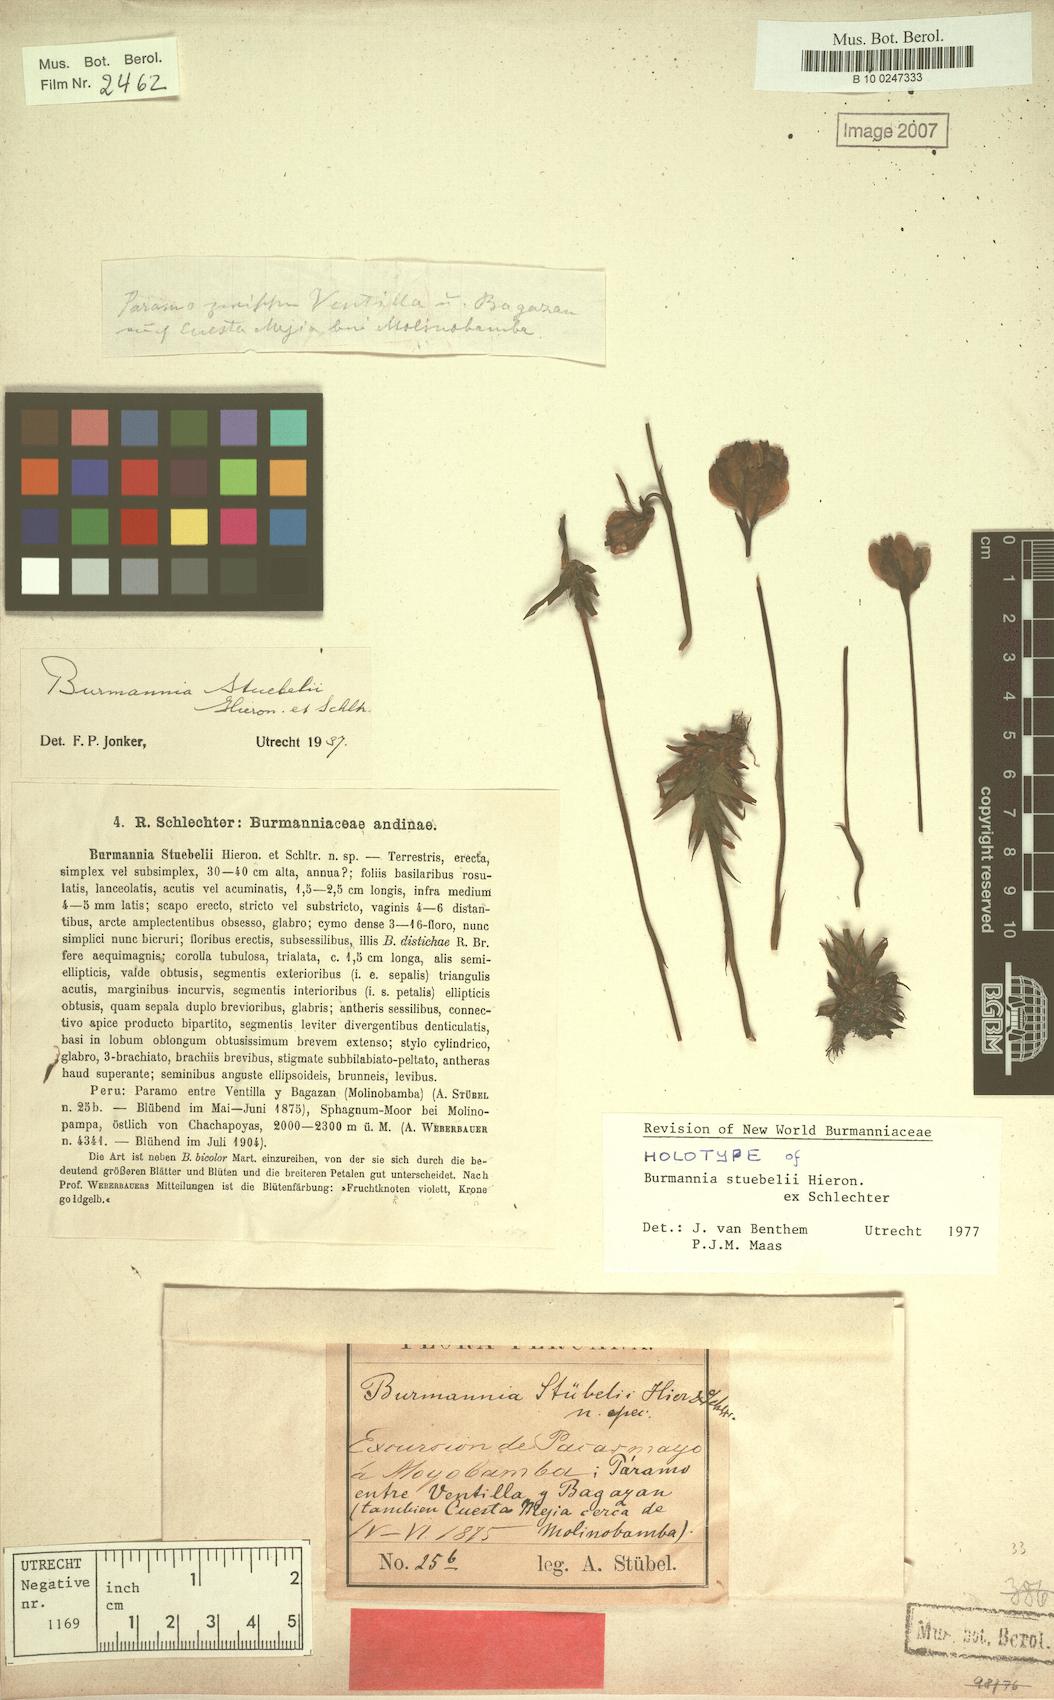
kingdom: Plantae
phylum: Tracheophyta
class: Liliopsida
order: Dioscoreales
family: Burmanniaceae
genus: Burmannia
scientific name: Burmannia stuebelii
